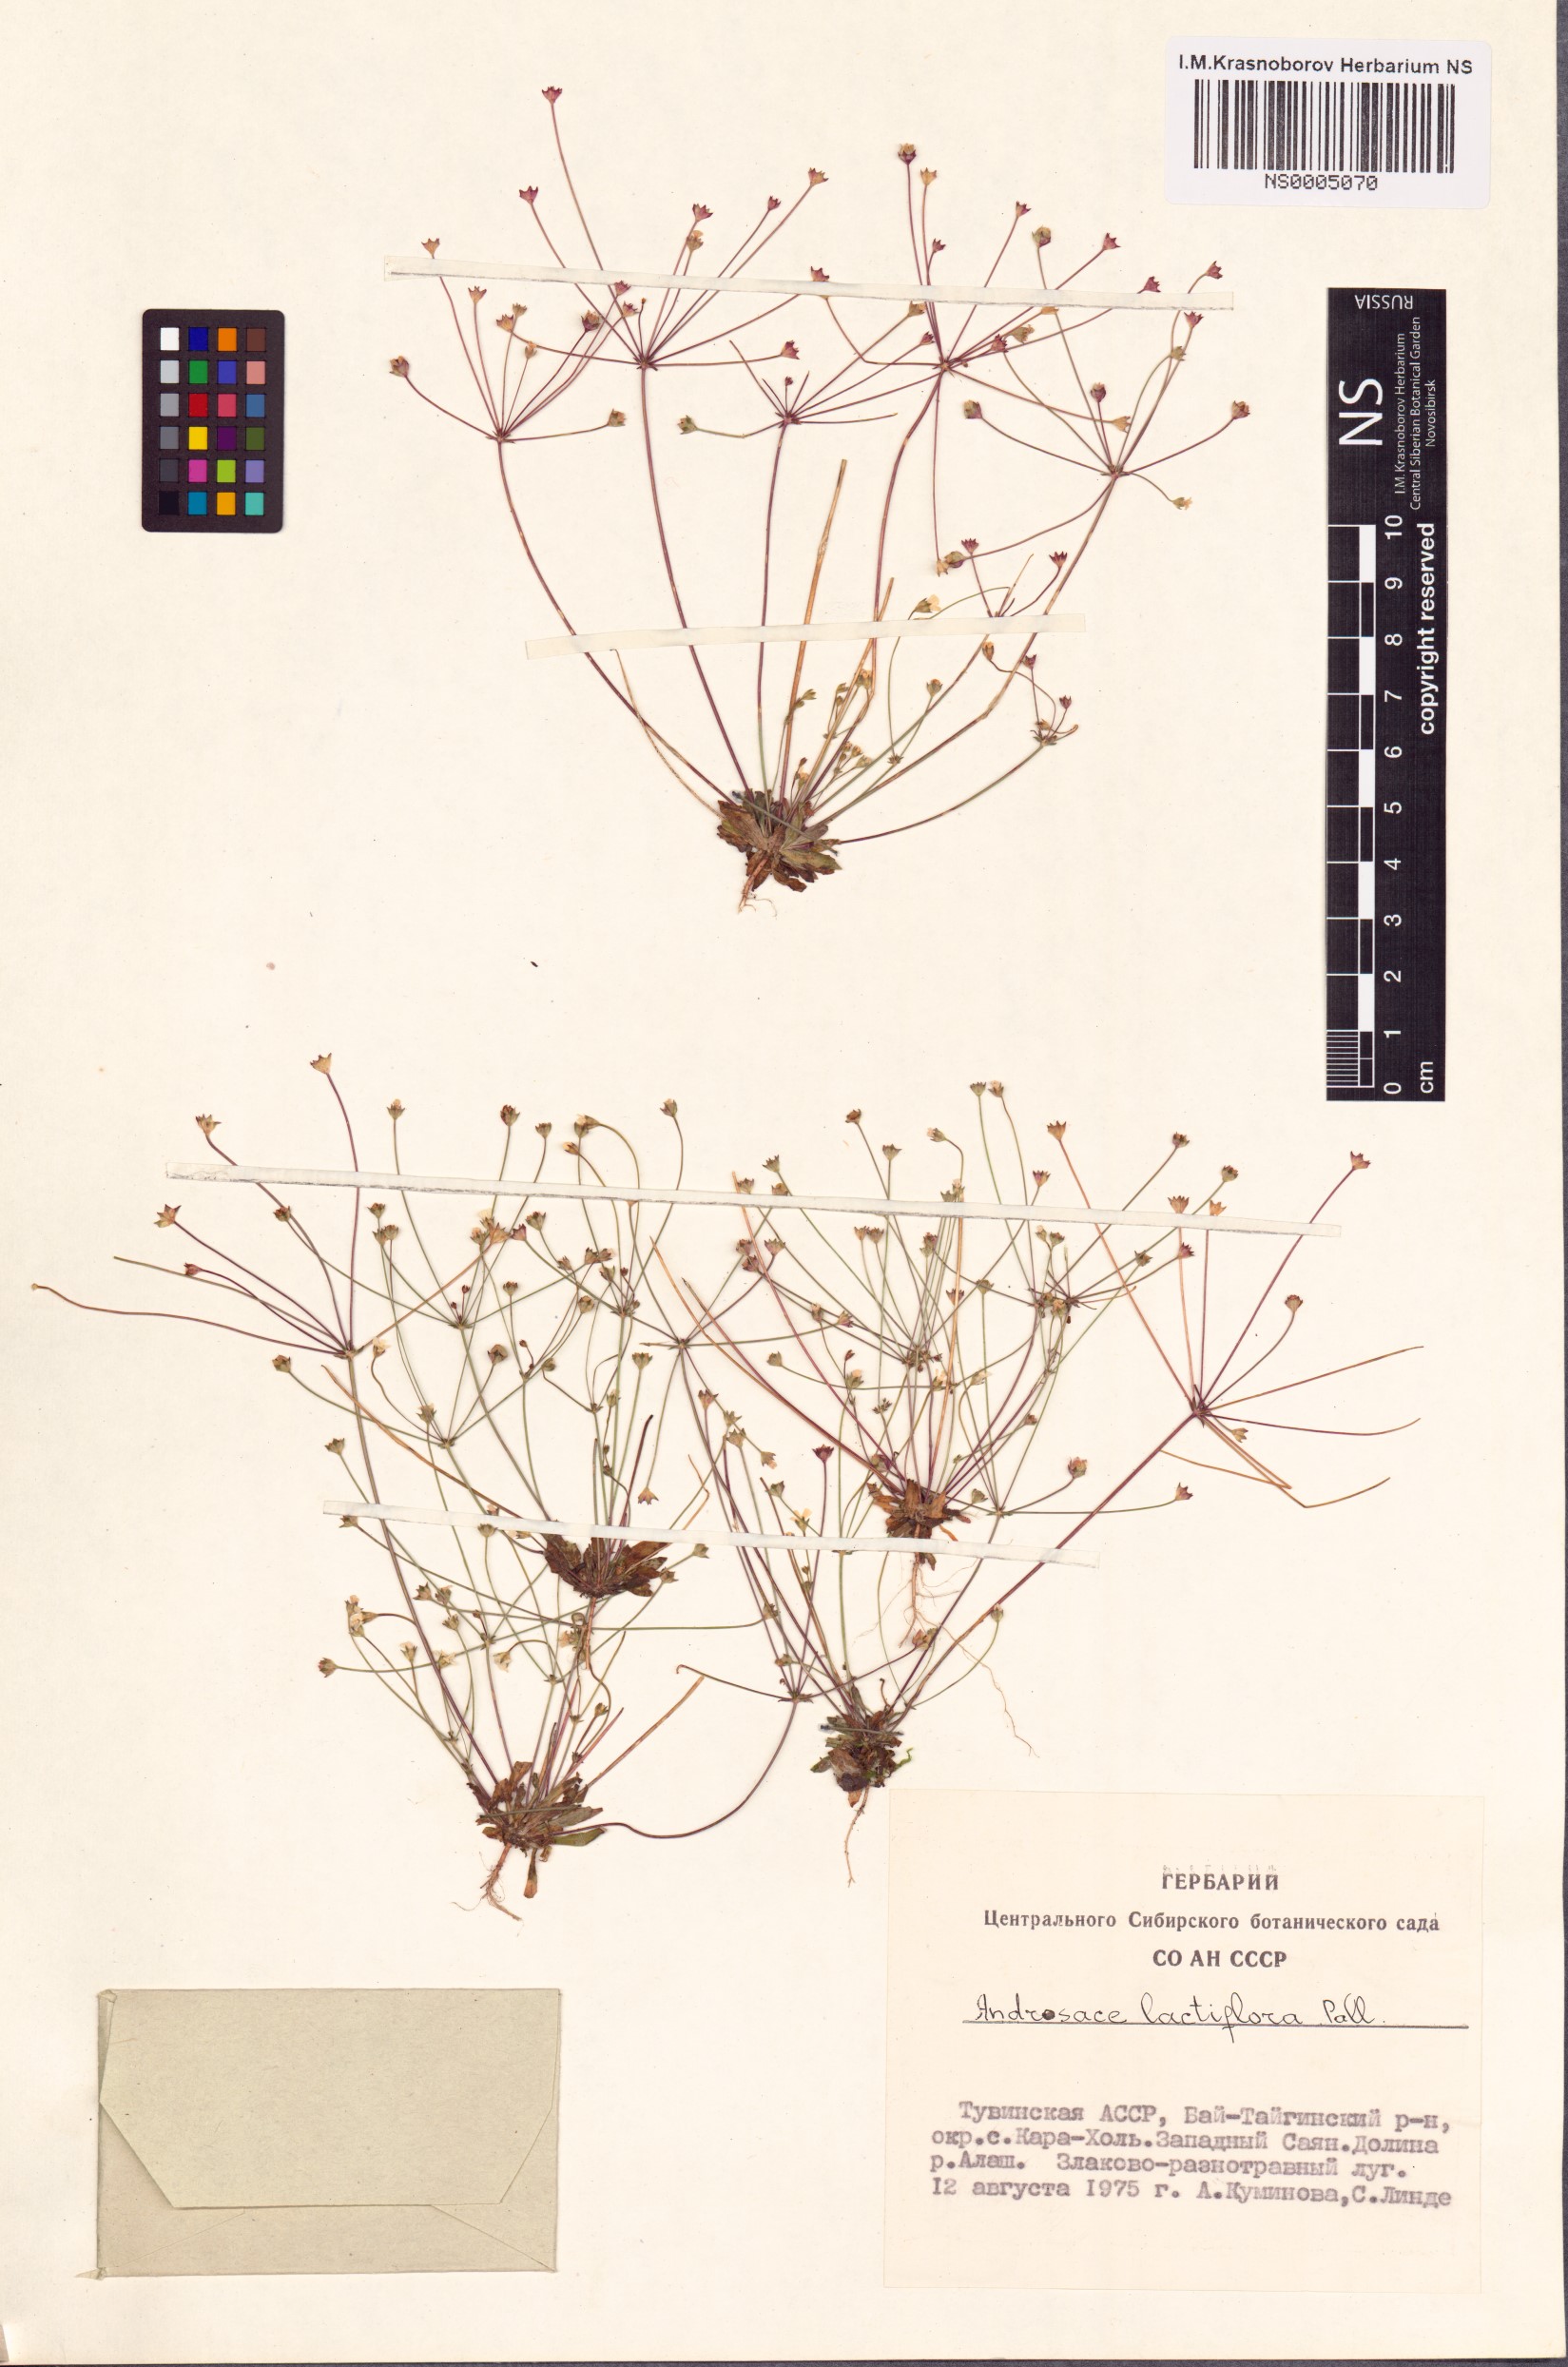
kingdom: Plantae
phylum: Tracheophyta
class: Magnoliopsida
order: Ericales
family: Primulaceae
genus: Androsace
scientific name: Androsace lactiflora
